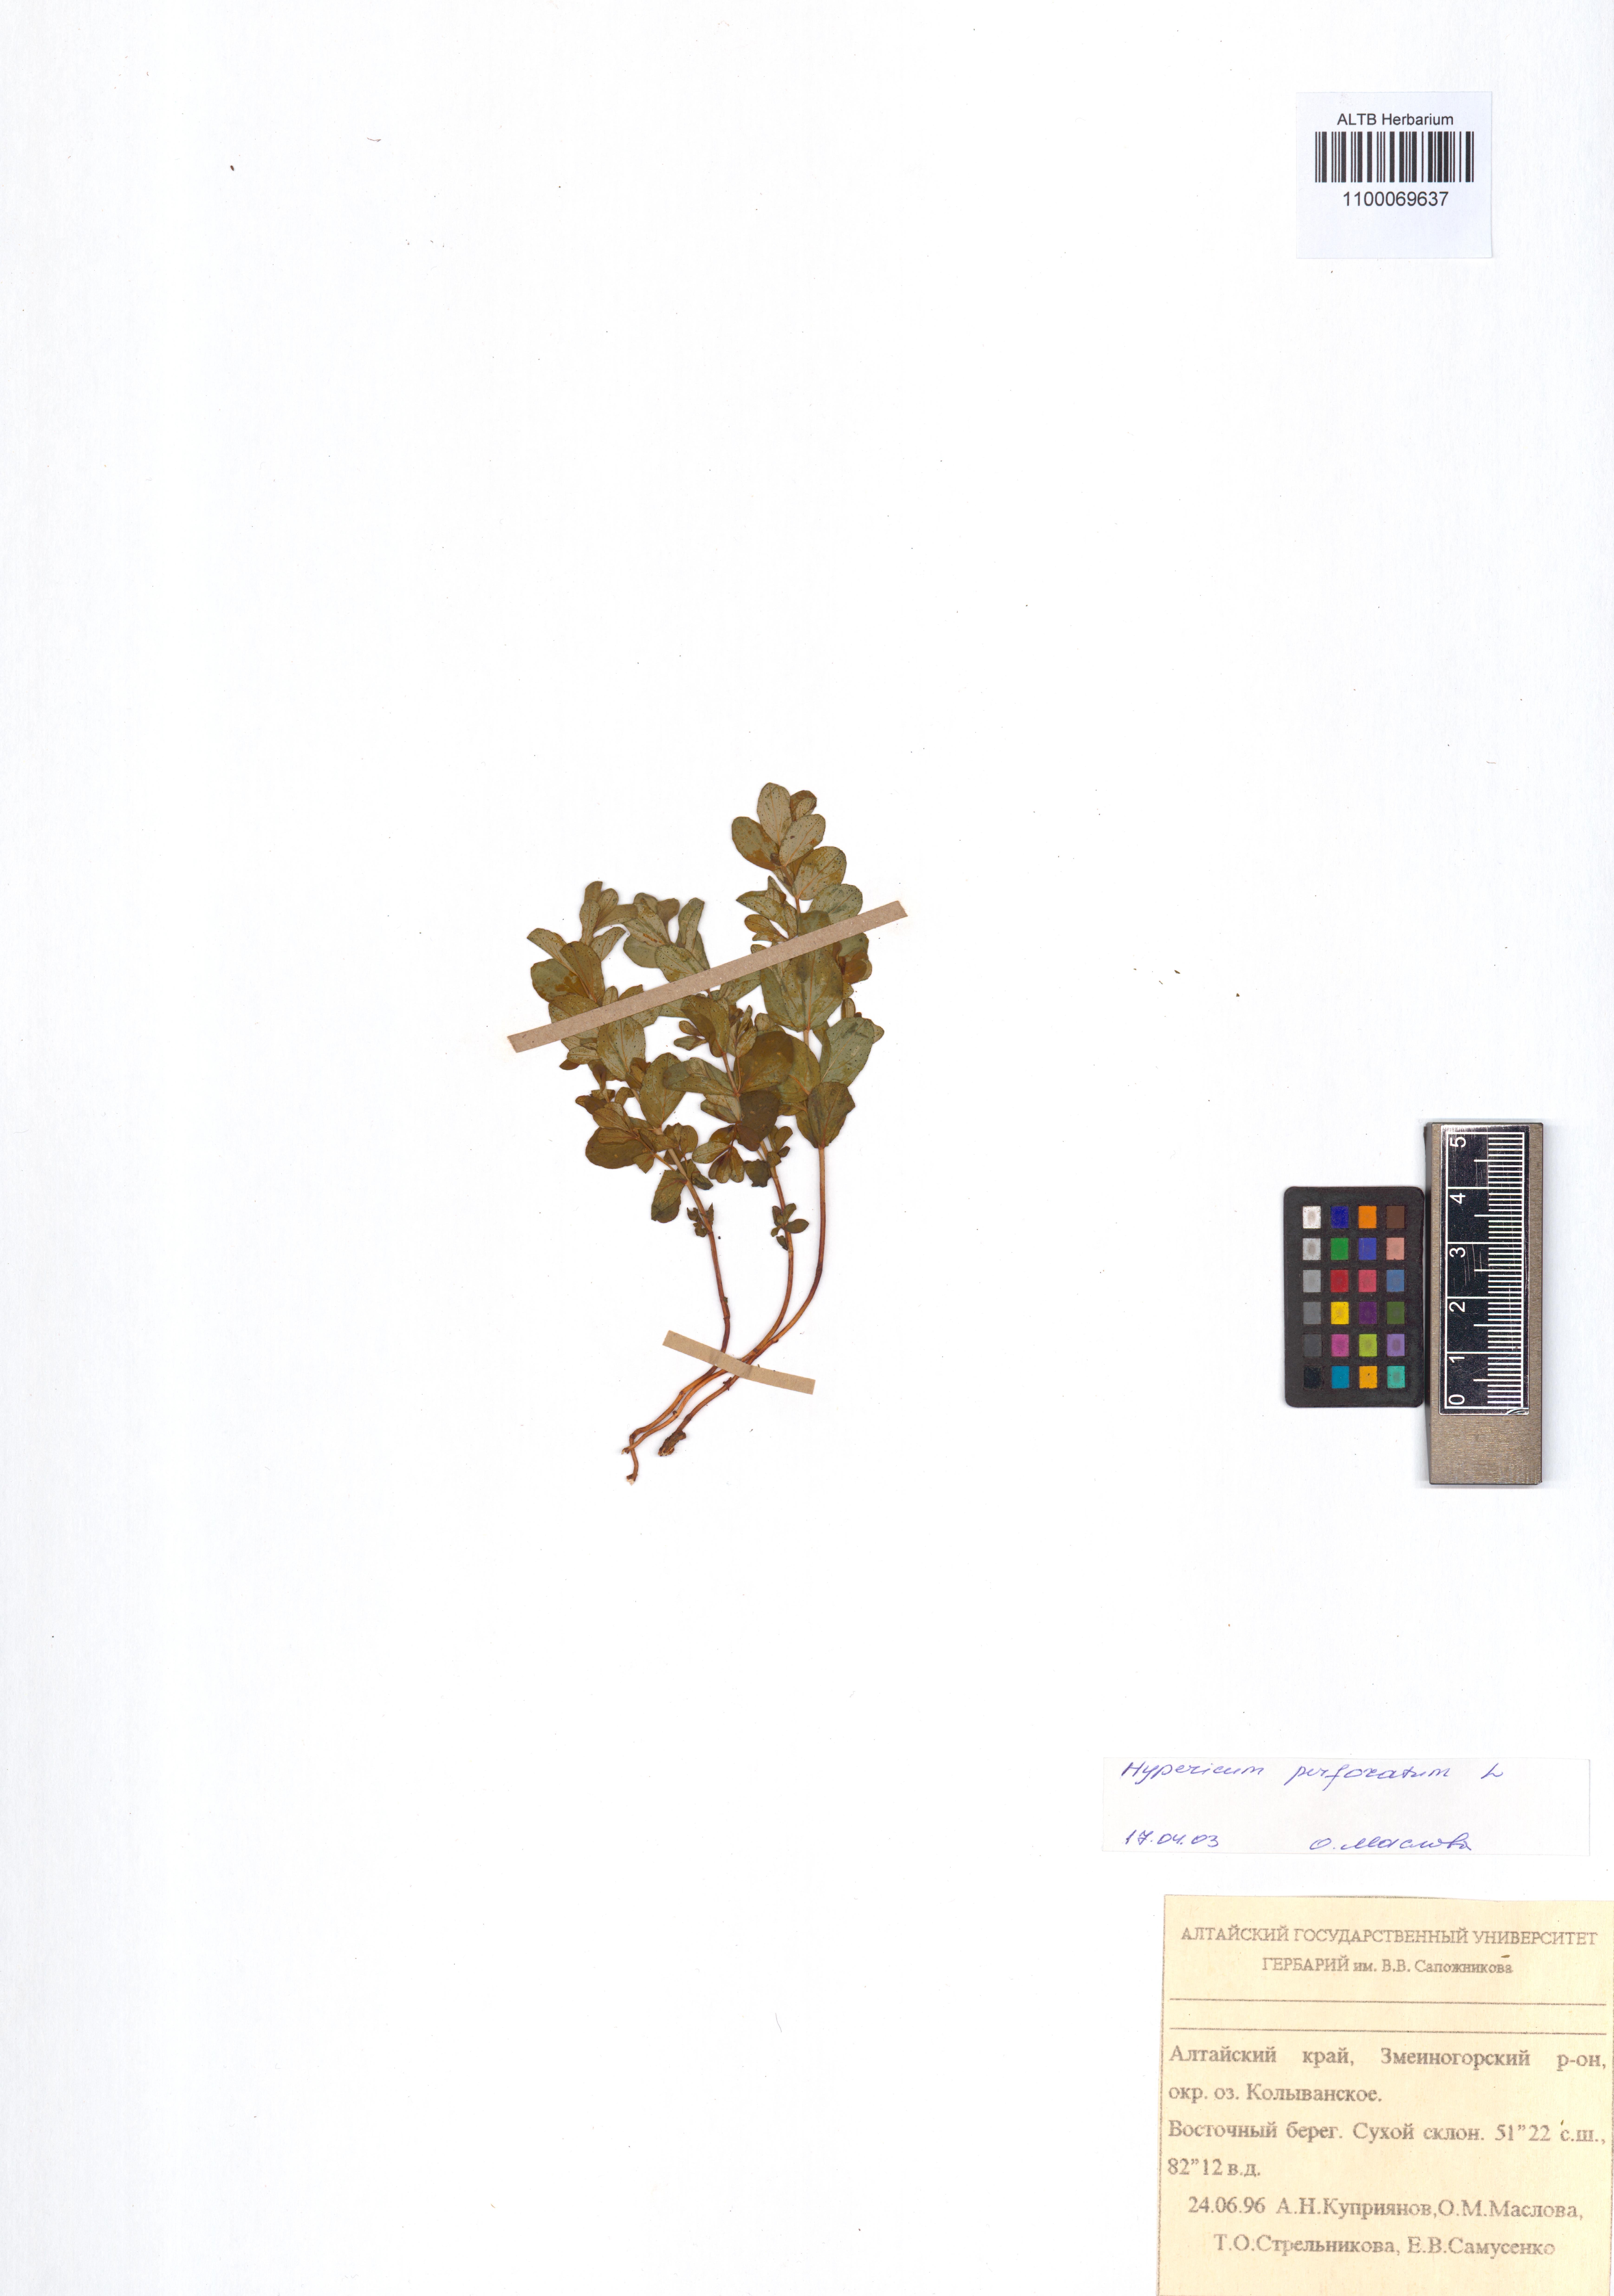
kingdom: Plantae
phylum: Tracheophyta
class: Magnoliopsida
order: Malpighiales
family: Hypericaceae
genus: Hypericum
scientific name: Hypericum perforatum
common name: Common st. johnswort
